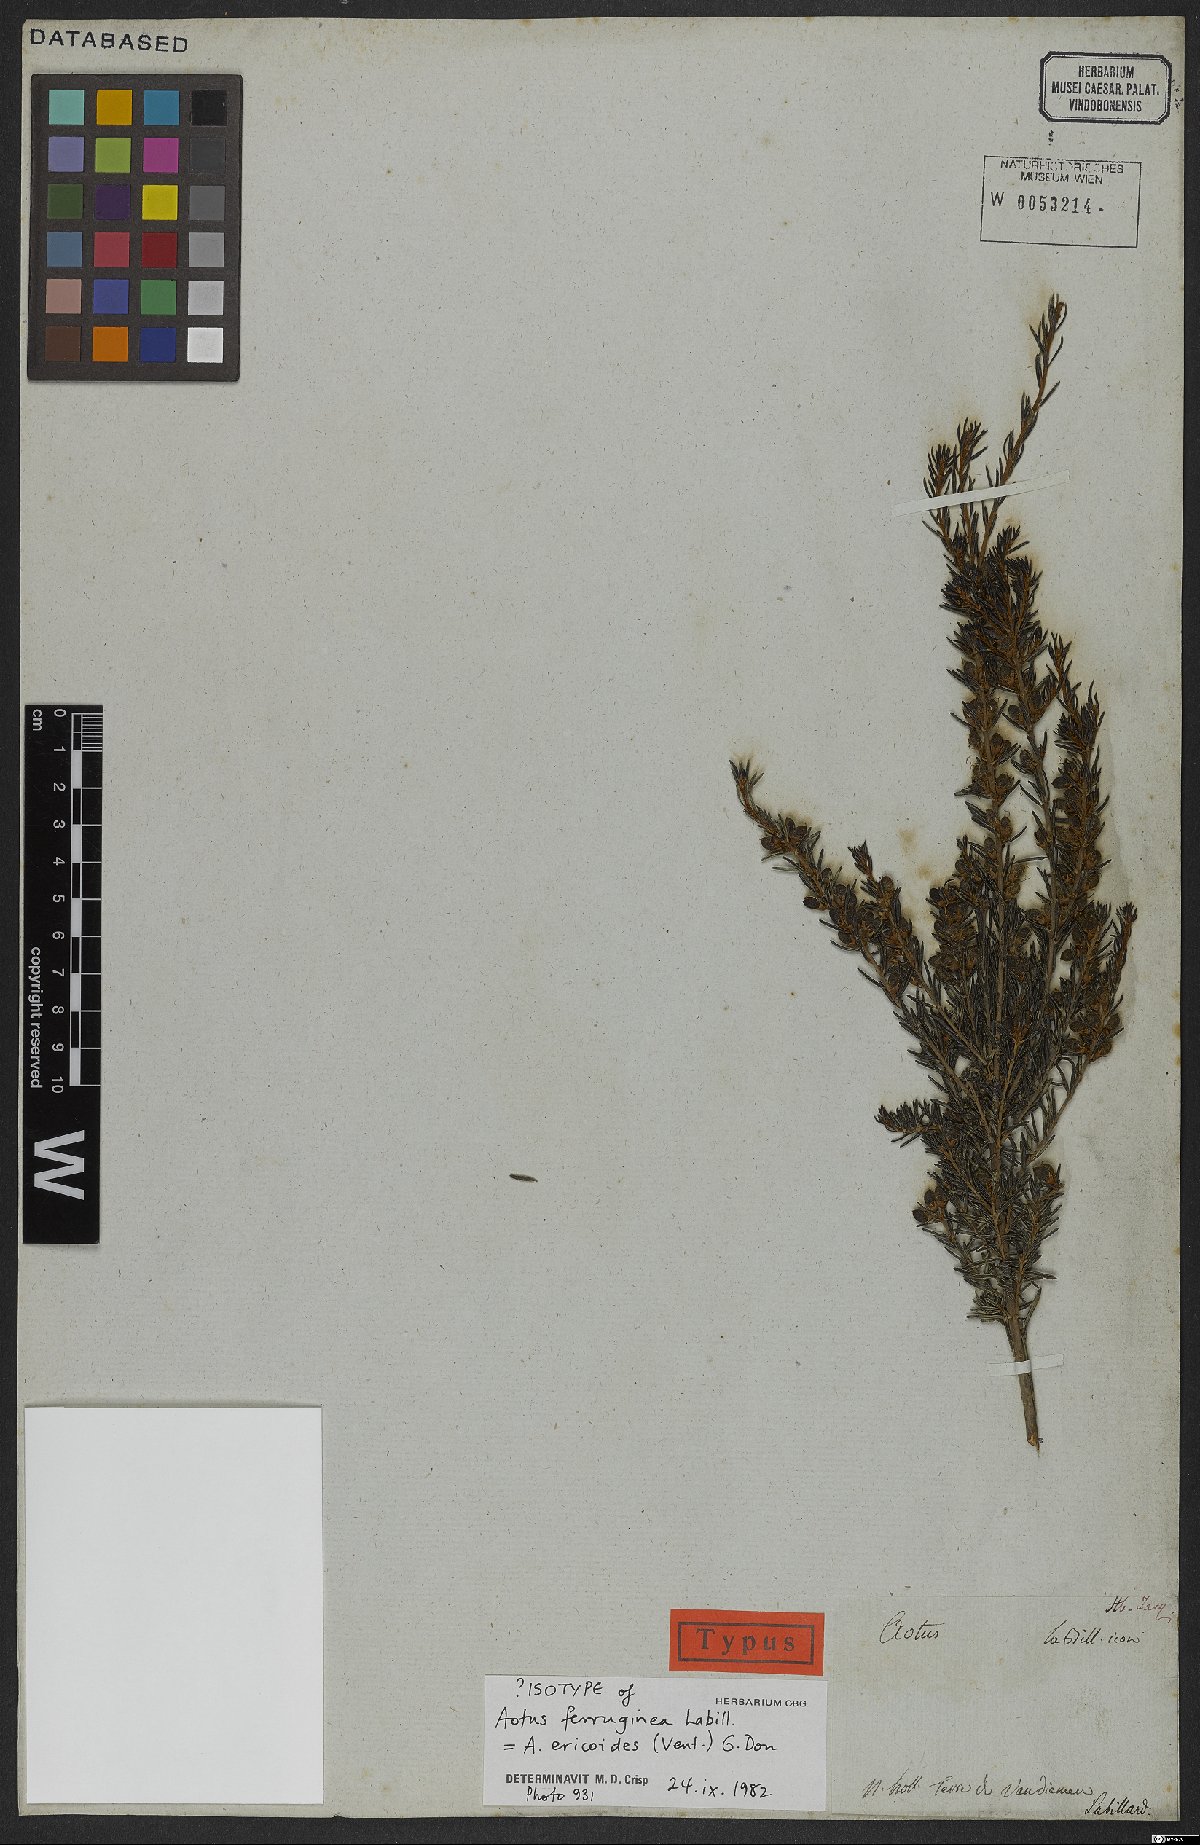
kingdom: Plantae
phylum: Tracheophyta
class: Magnoliopsida
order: Fabales
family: Fabaceae
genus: Aotus
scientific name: Aotus ericoides
